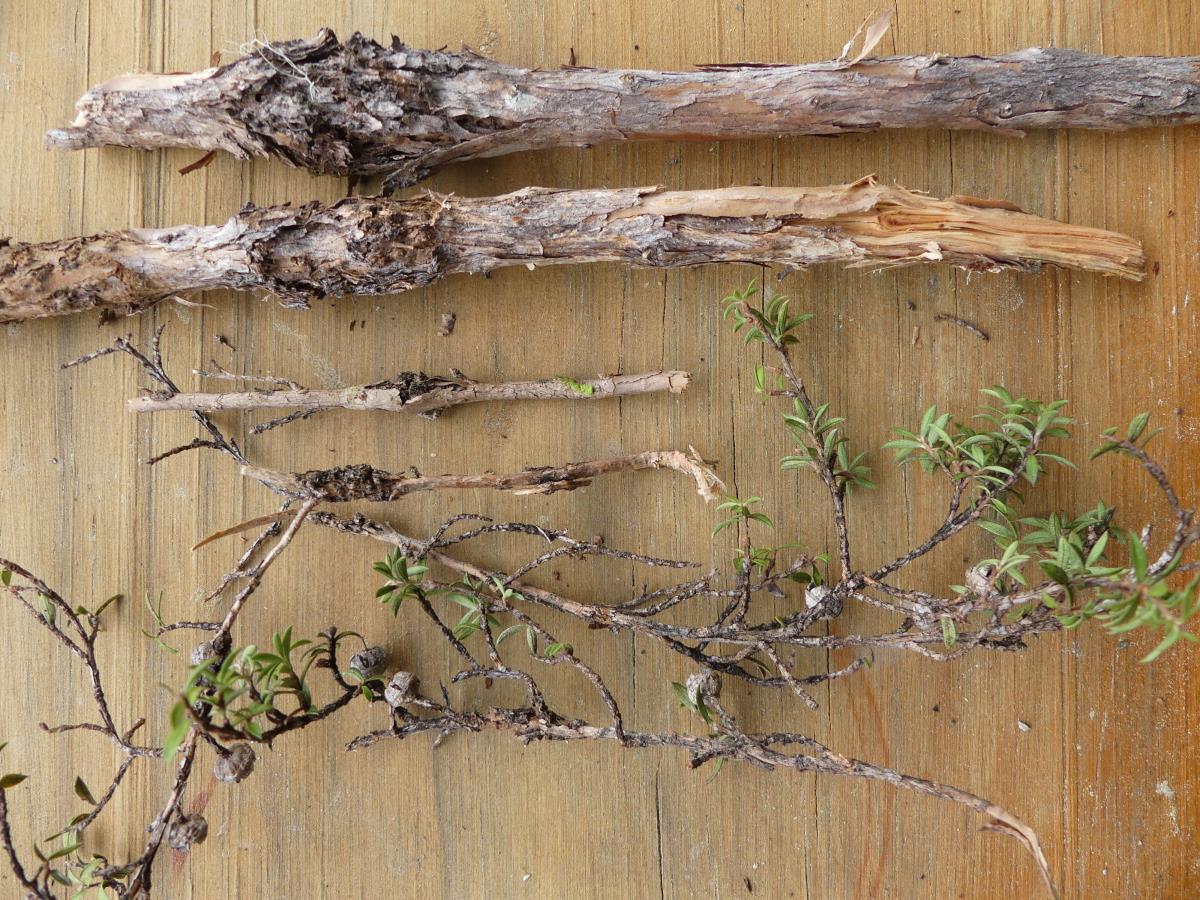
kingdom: Fungi
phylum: Ascomycota
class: Dothideomycetes
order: Pleosporales
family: Didymosphaeriaceae
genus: Didymosphaeria
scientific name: Didymosphaeria
